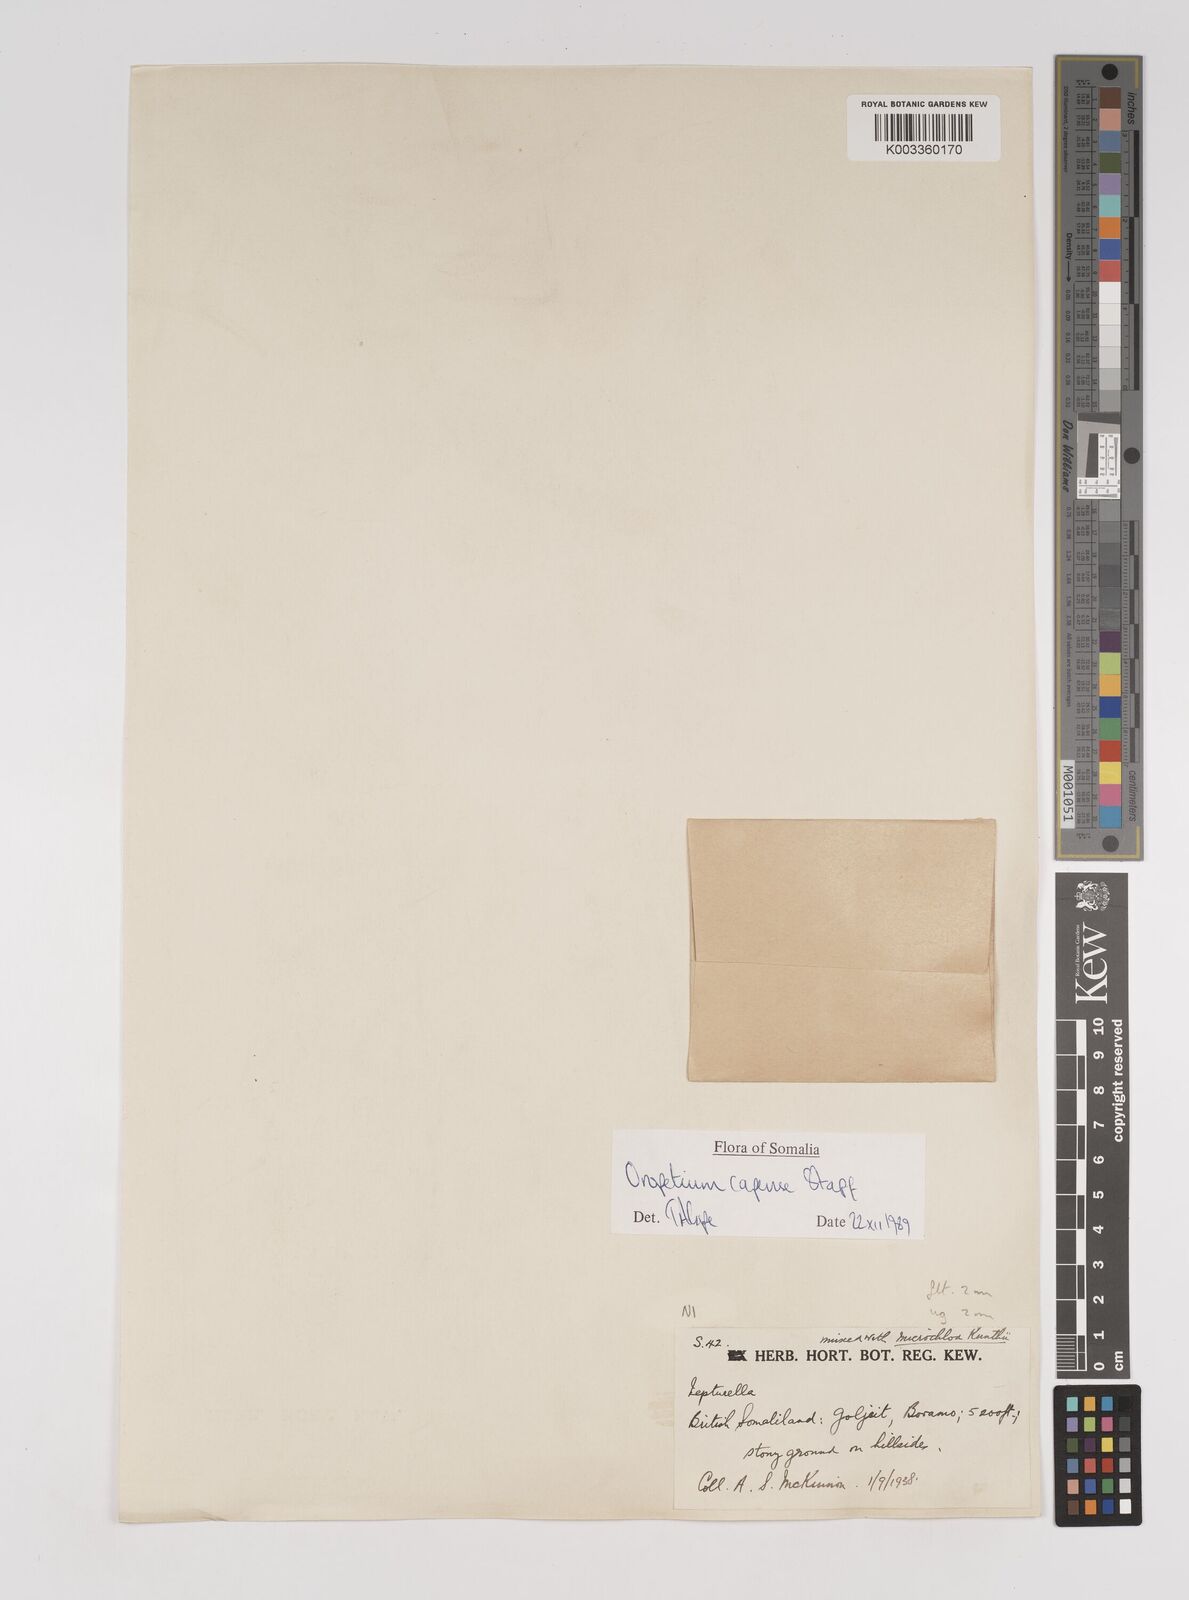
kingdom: Plantae
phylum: Tracheophyta
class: Liliopsida
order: Poales
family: Poaceae
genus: Oropetium
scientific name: Oropetium capense
